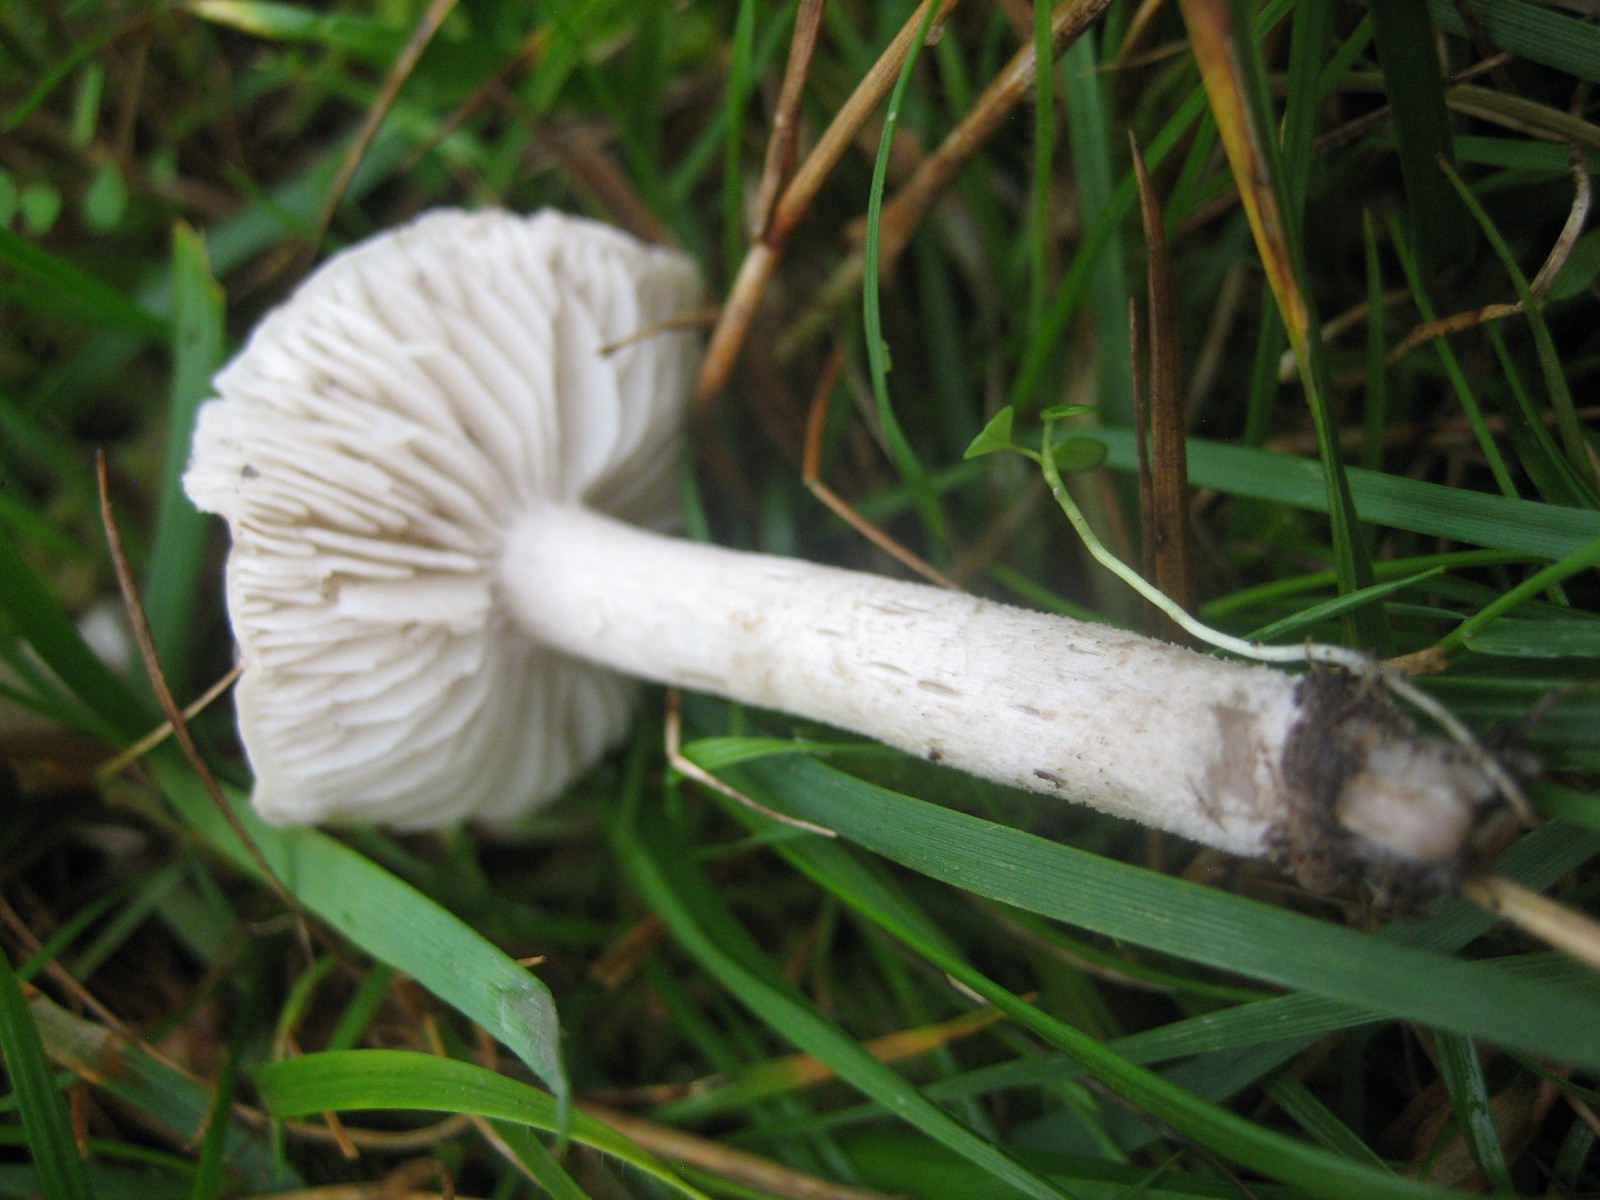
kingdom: Fungi
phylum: Basidiomycota
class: Agaricomycetes
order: Agaricales
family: Tricholomataceae
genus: Dermoloma
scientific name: Dermoloma cuneifolium
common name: eng-nonnehat
